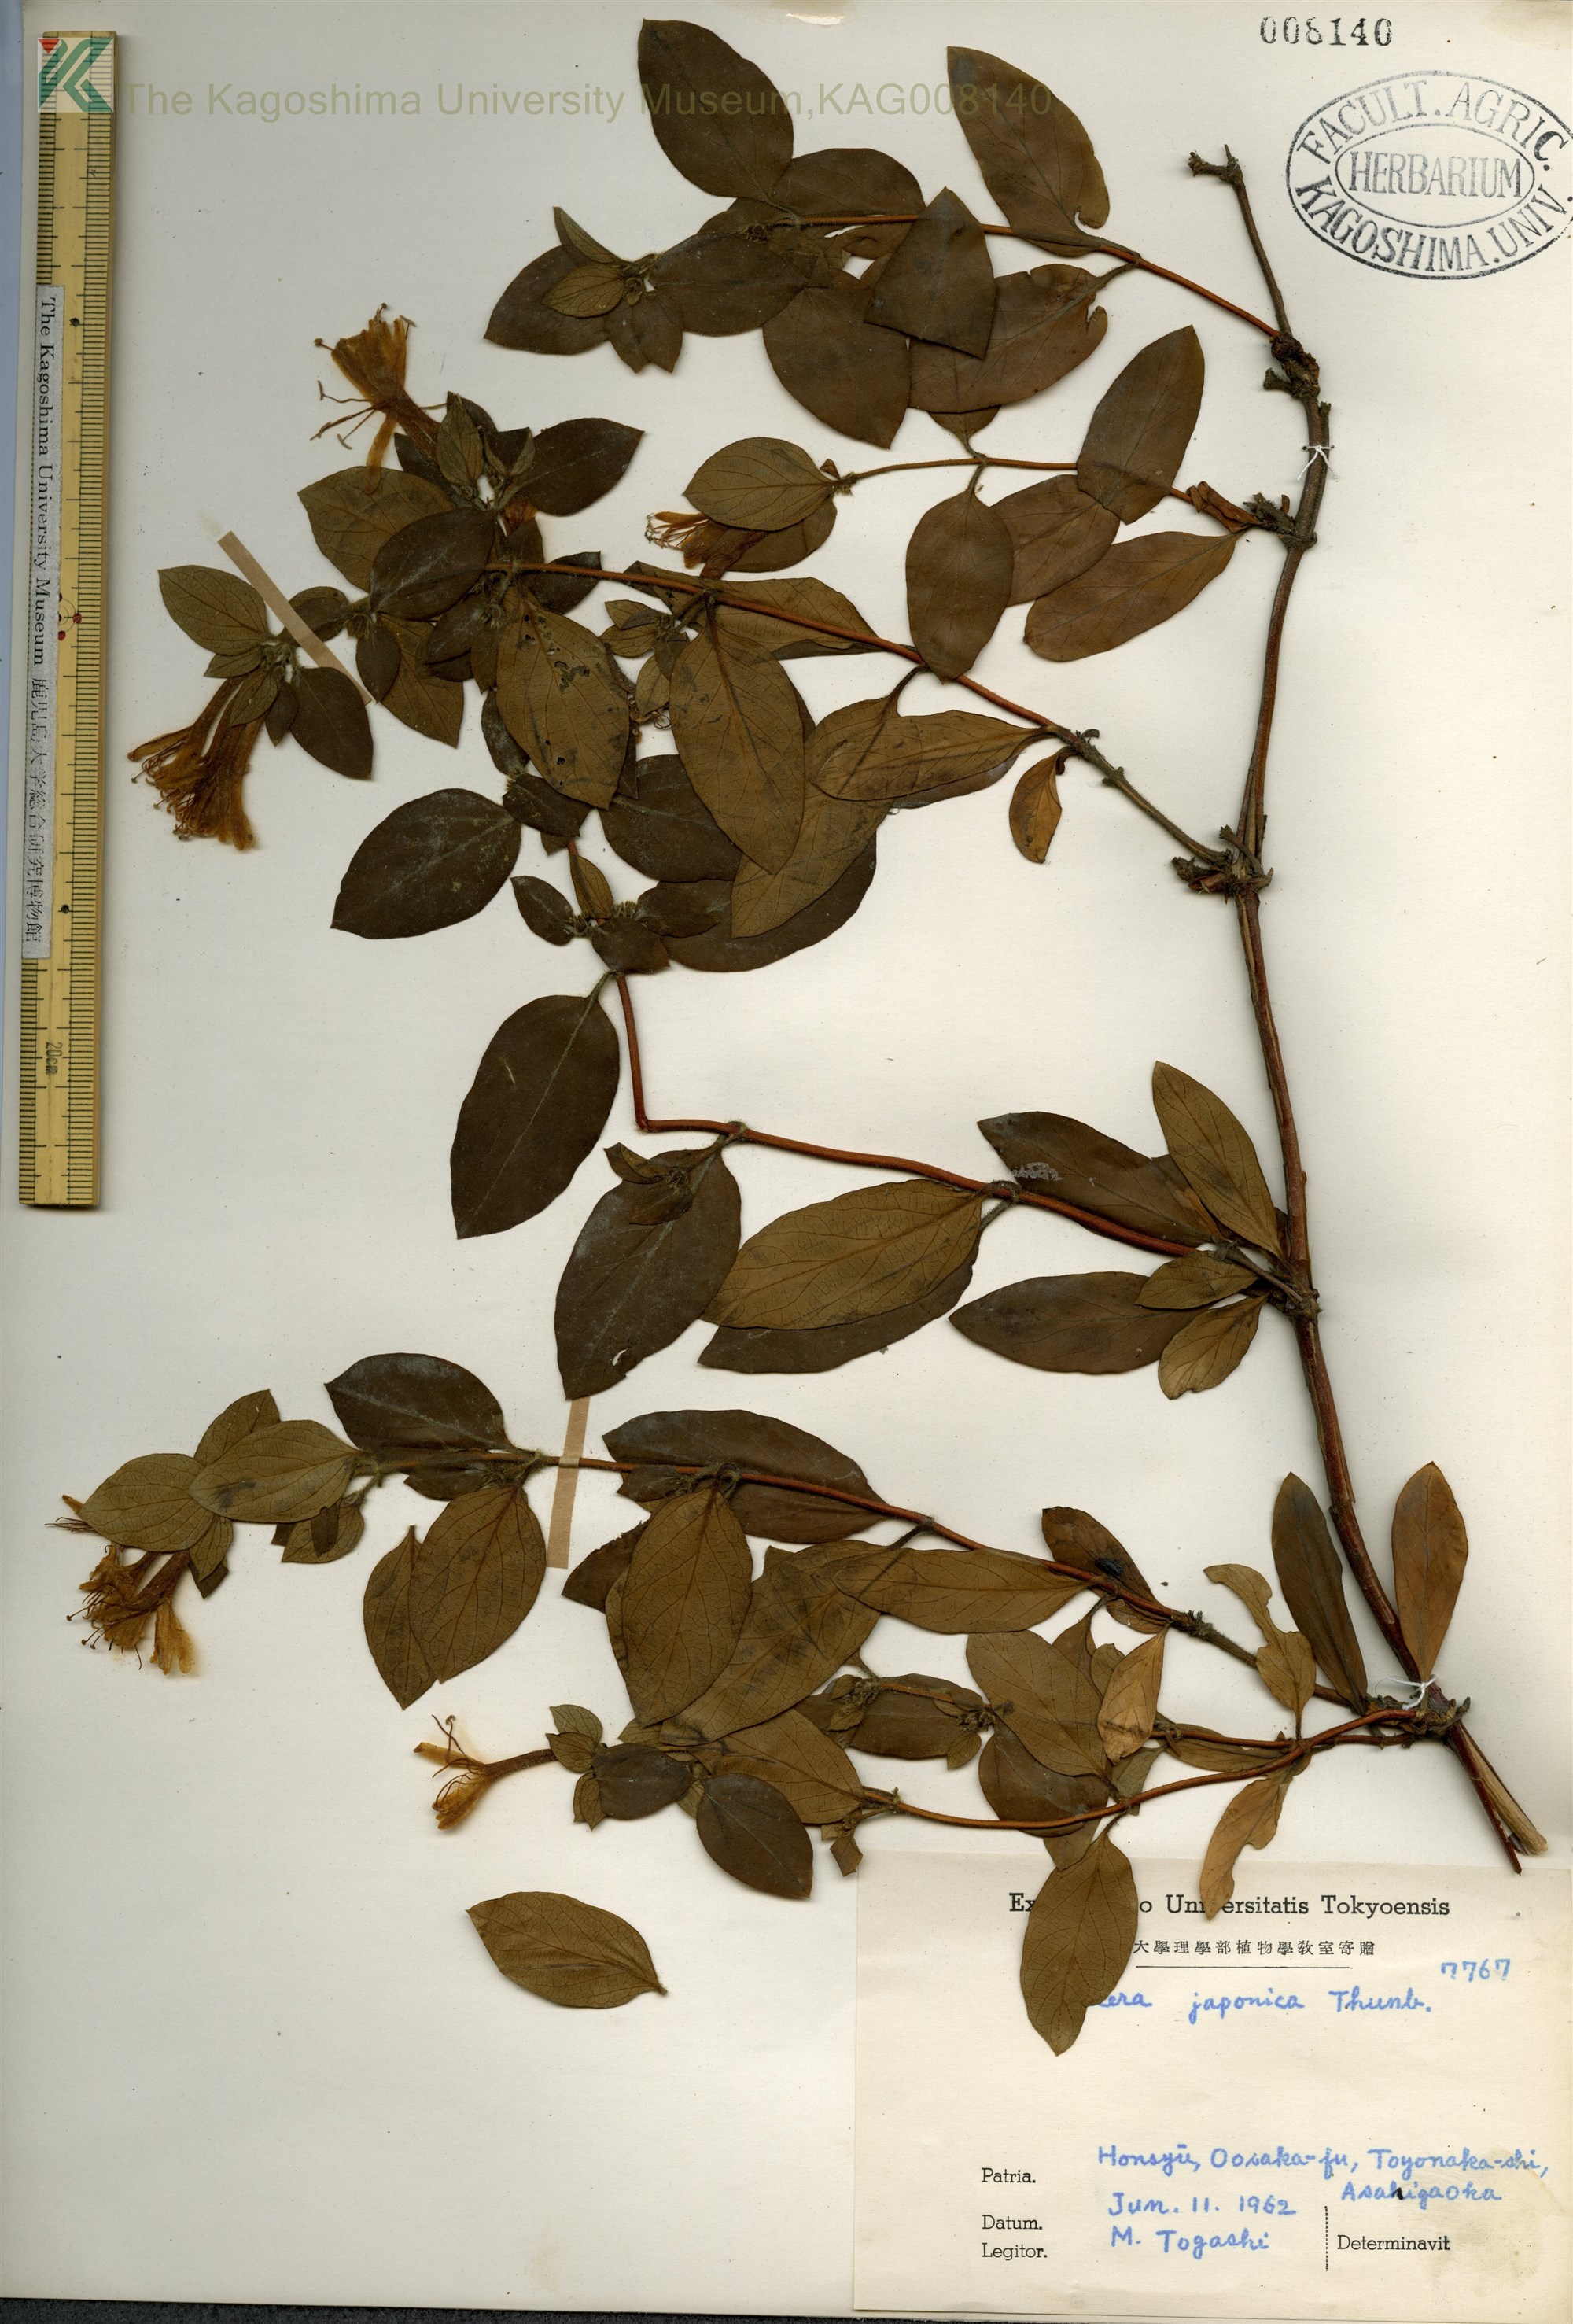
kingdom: Plantae
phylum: Tracheophyta
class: Magnoliopsida
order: Dipsacales
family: Caprifoliaceae
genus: Lonicera
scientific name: Lonicera japonica
